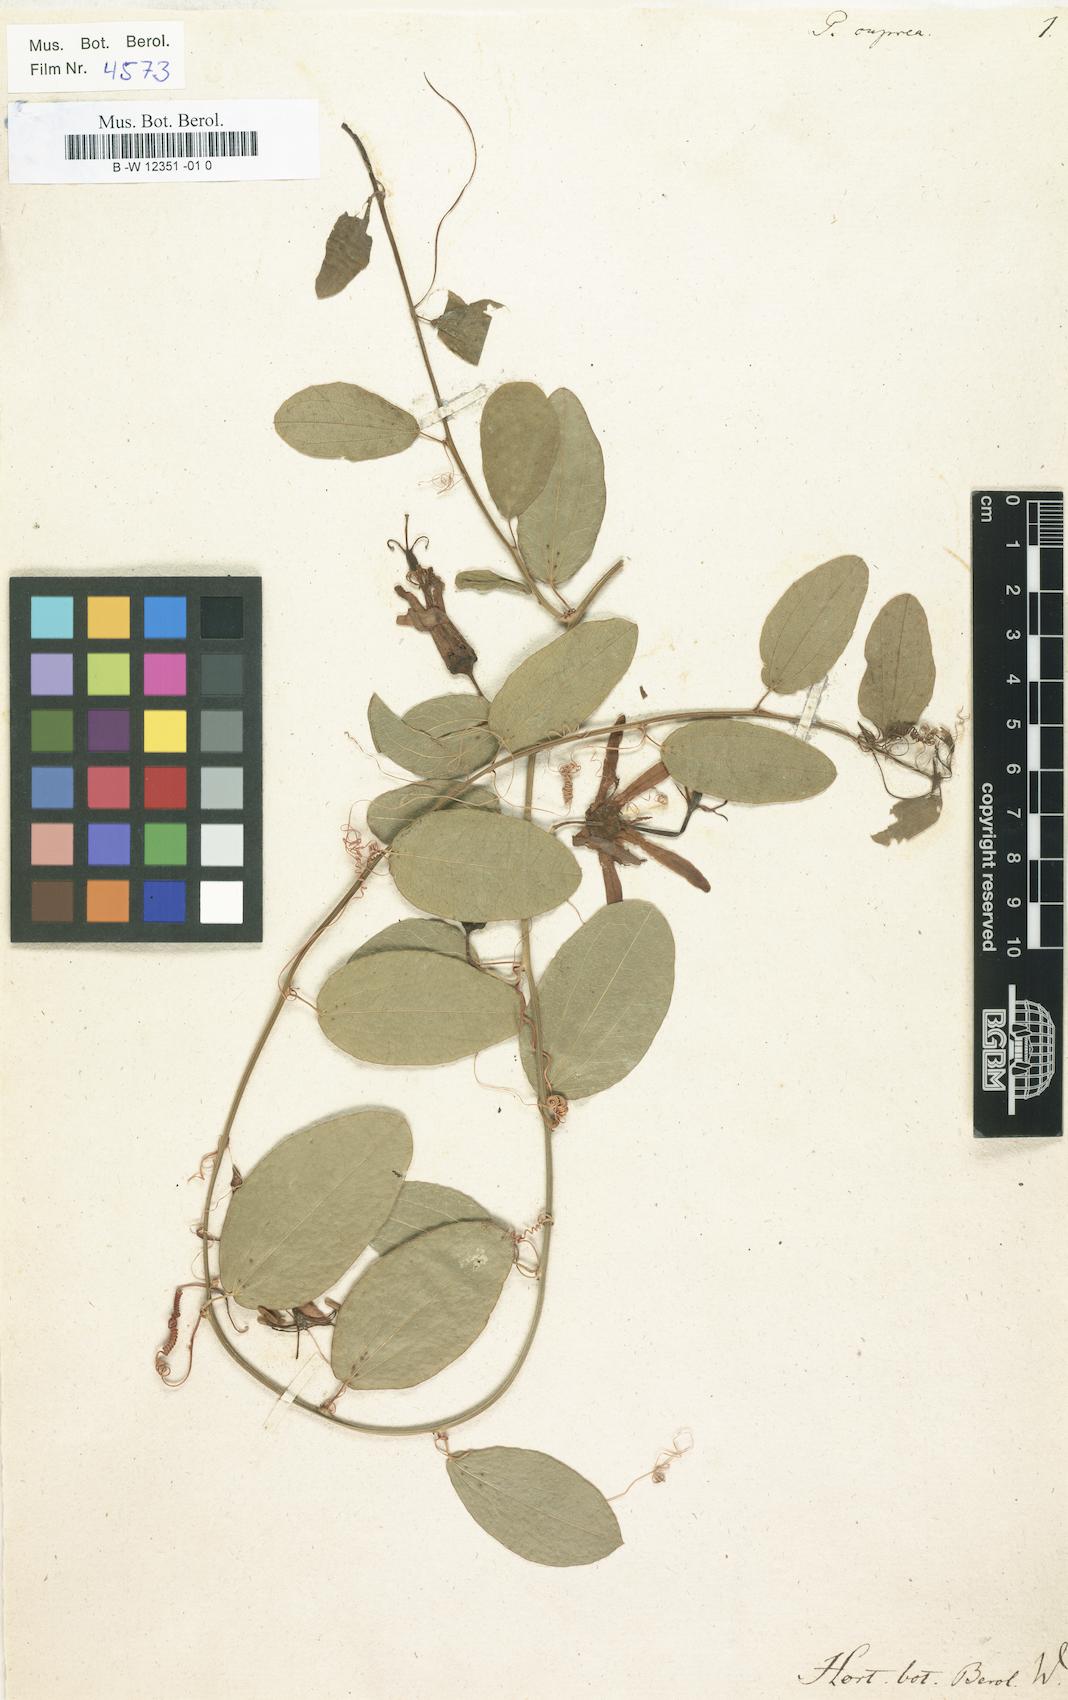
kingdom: Plantae
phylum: Tracheophyta
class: Magnoliopsida
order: Malpighiales
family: Passifloraceae
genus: Passiflora
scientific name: Passiflora cuprea
